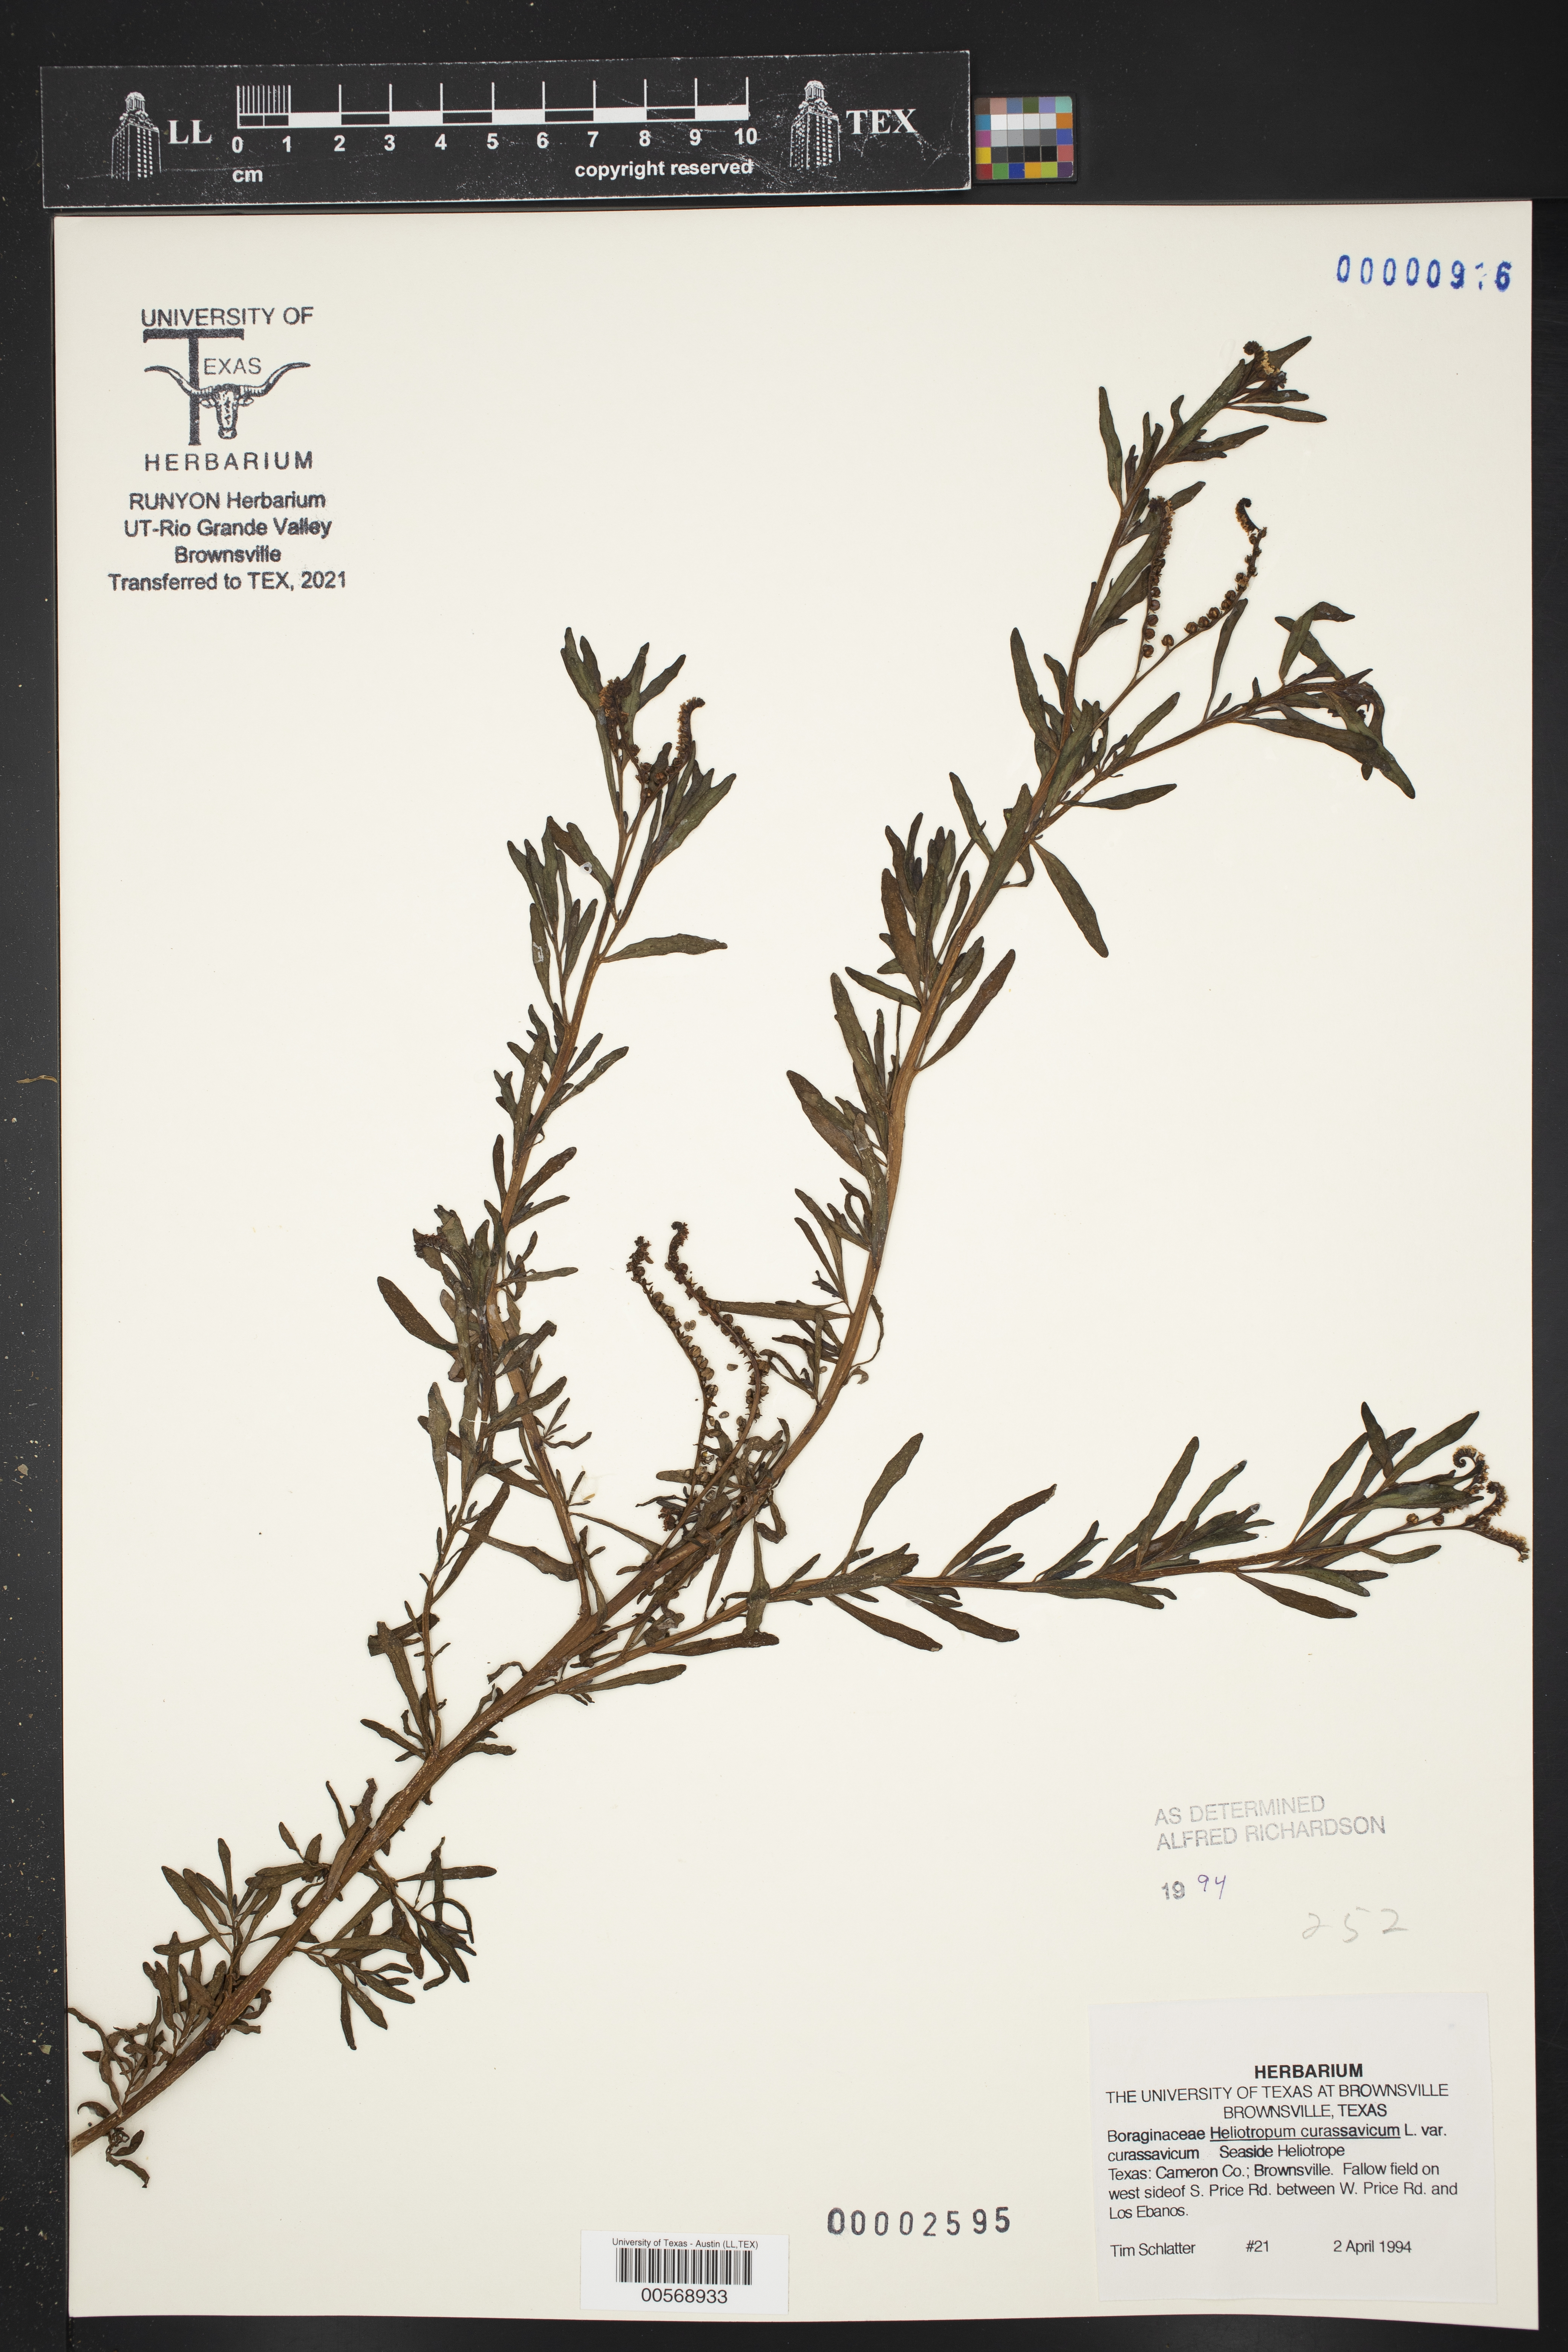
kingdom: Plantae
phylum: Tracheophyta
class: Magnoliopsida
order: Boraginales
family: Heliotropiaceae
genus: Heliotropium
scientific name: Heliotropium curassavicum
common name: Seaside heliotrope
